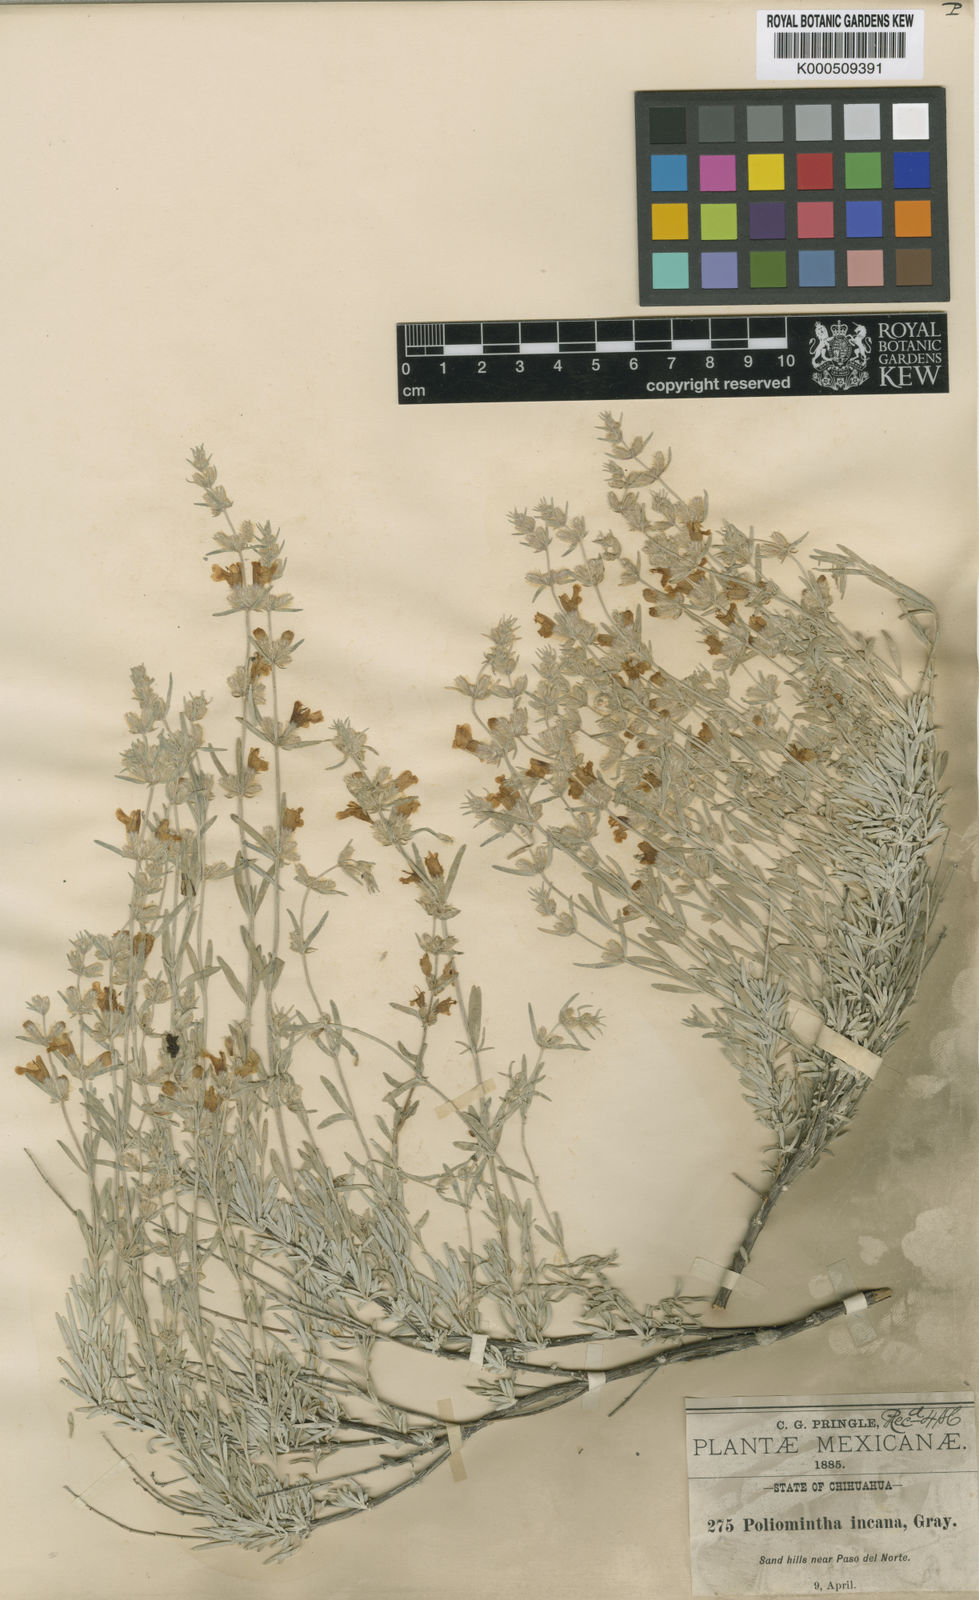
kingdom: Plantae
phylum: Tracheophyta
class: Magnoliopsida
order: Lamiales
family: Lamiaceae
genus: Poliomintha
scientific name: Poliomintha incana
